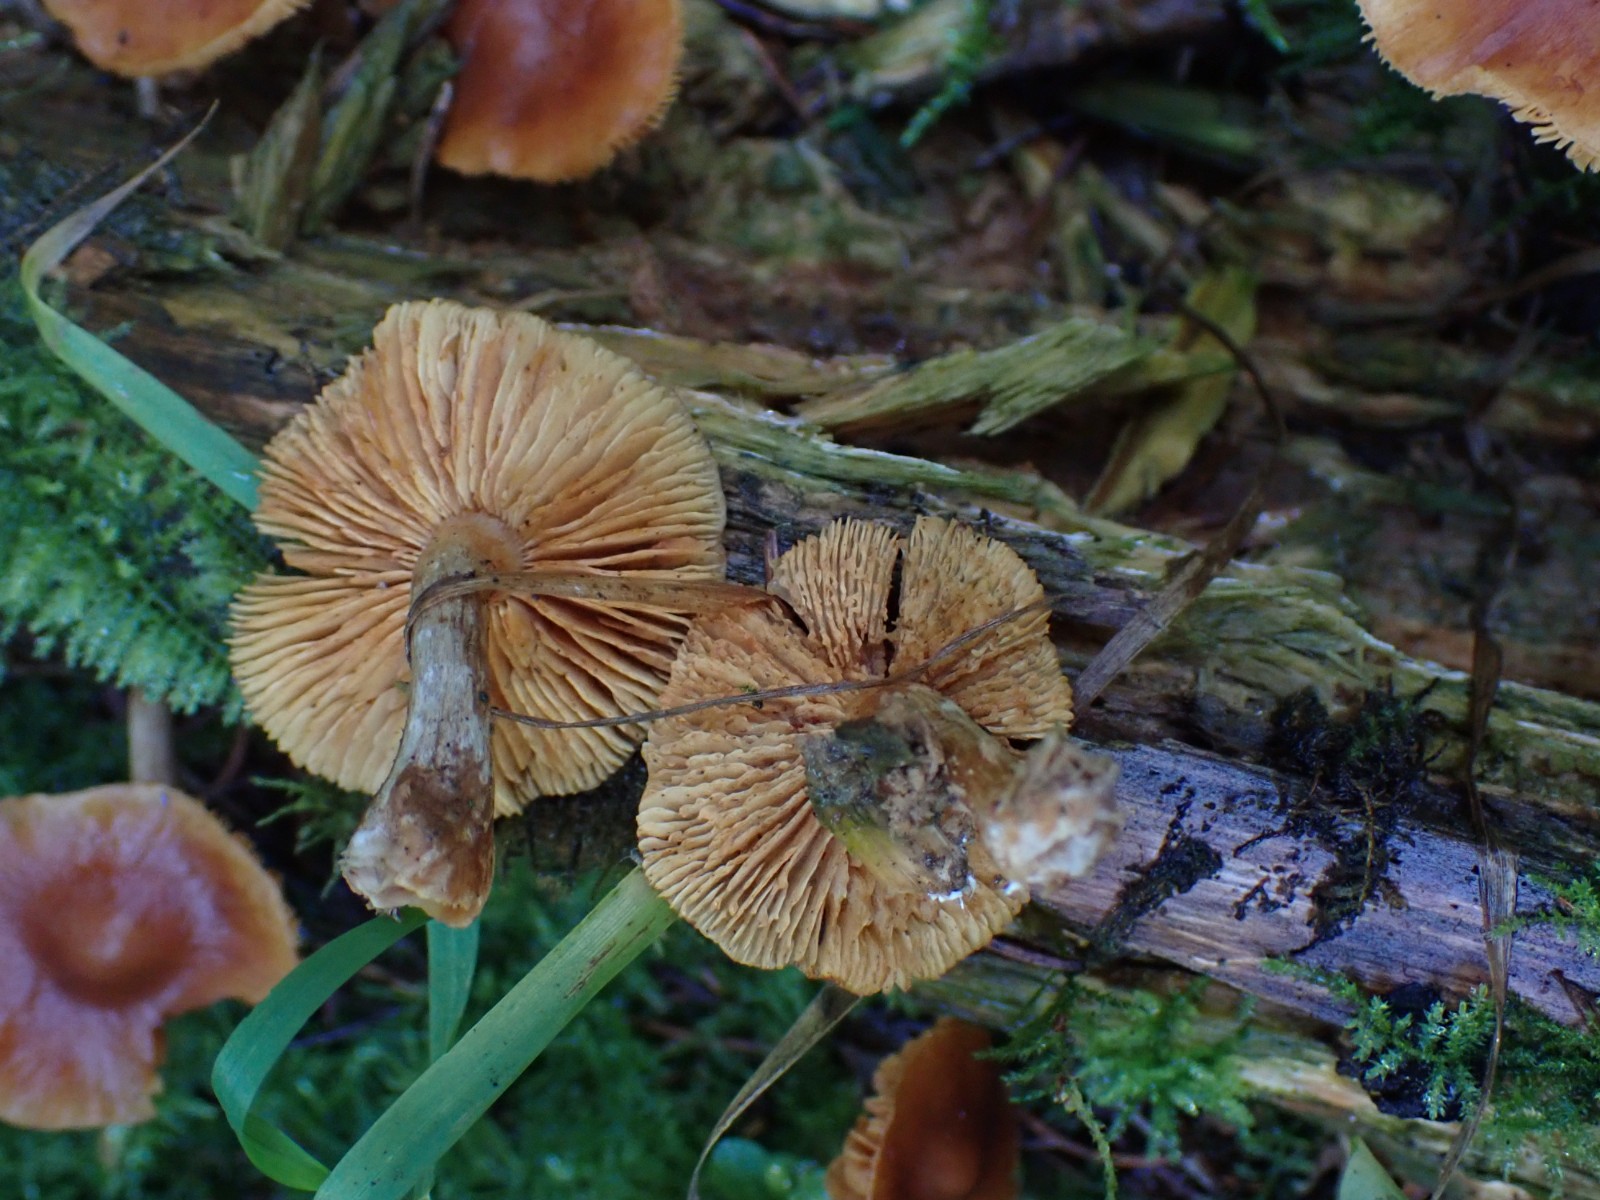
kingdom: Fungi
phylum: Basidiomycota
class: Agaricomycetes
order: Agaricales
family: Hymenogastraceae
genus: Gymnopilus
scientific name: Gymnopilus penetrans
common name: plettet flammehat
